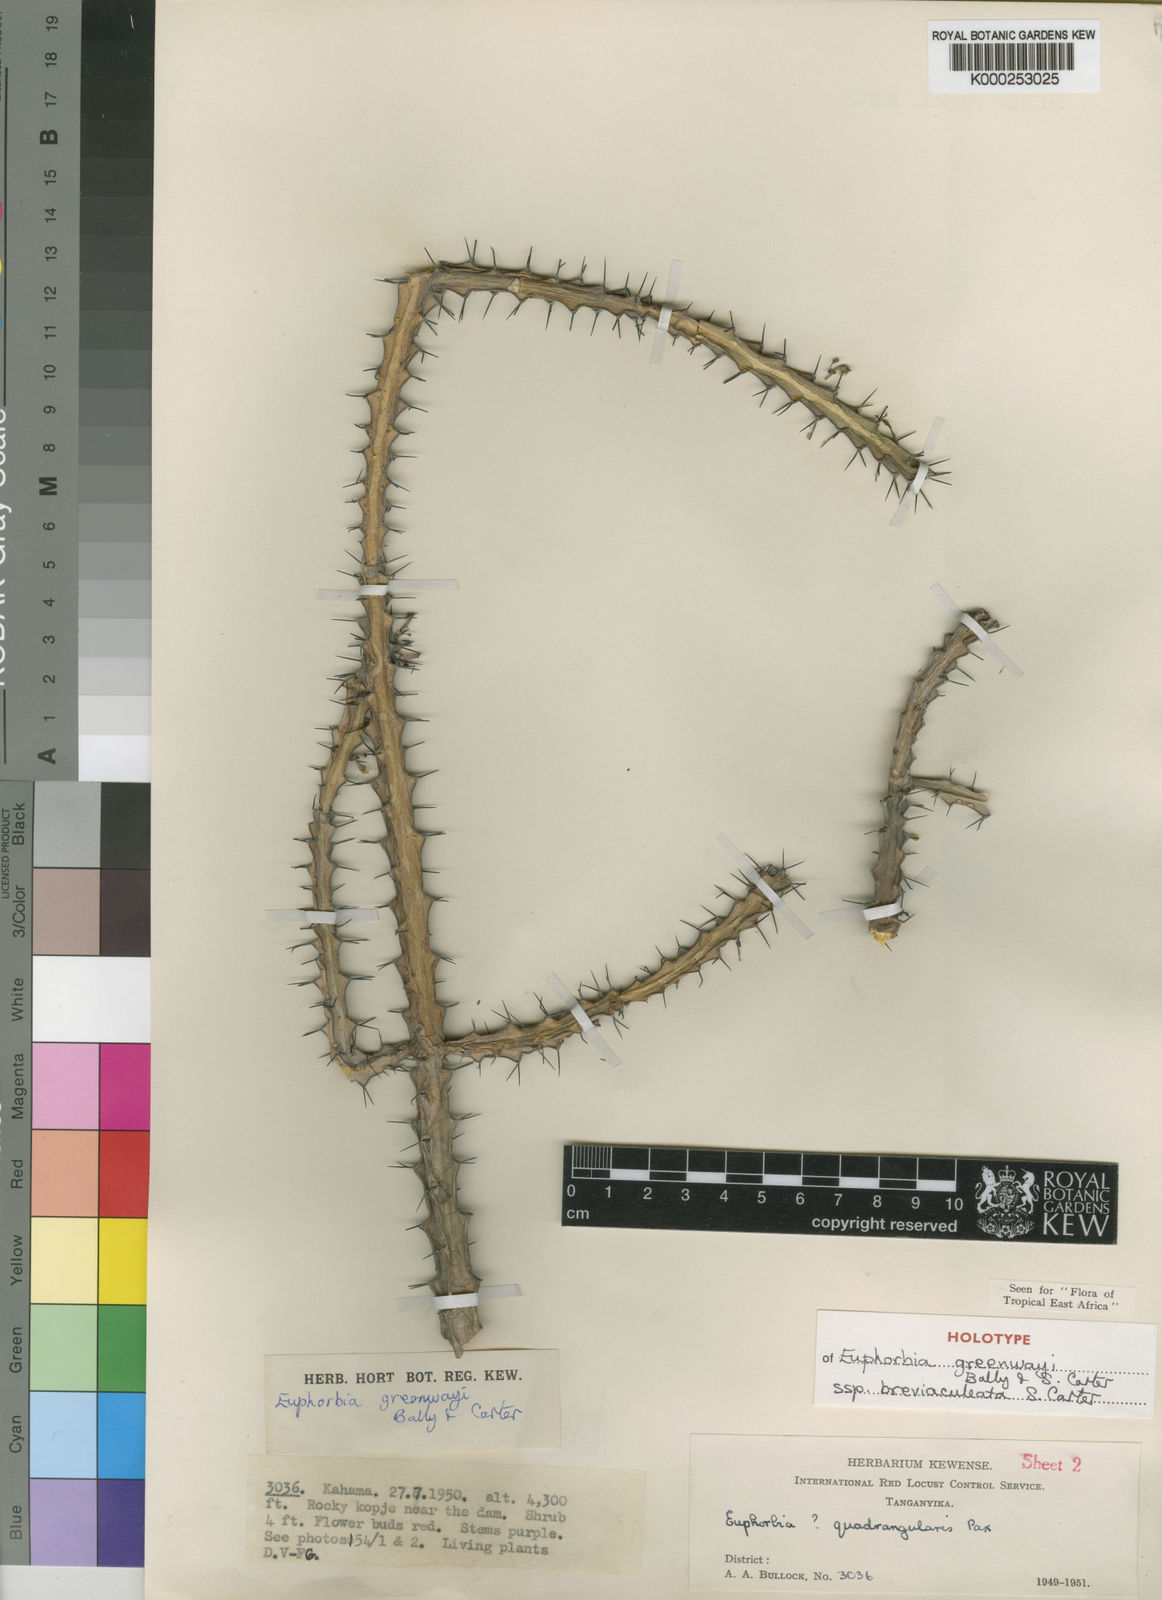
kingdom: Plantae
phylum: Tracheophyta
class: Magnoliopsida
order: Malpighiales
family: Euphorbiaceae
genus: Euphorbia
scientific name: Euphorbia greenwayi
